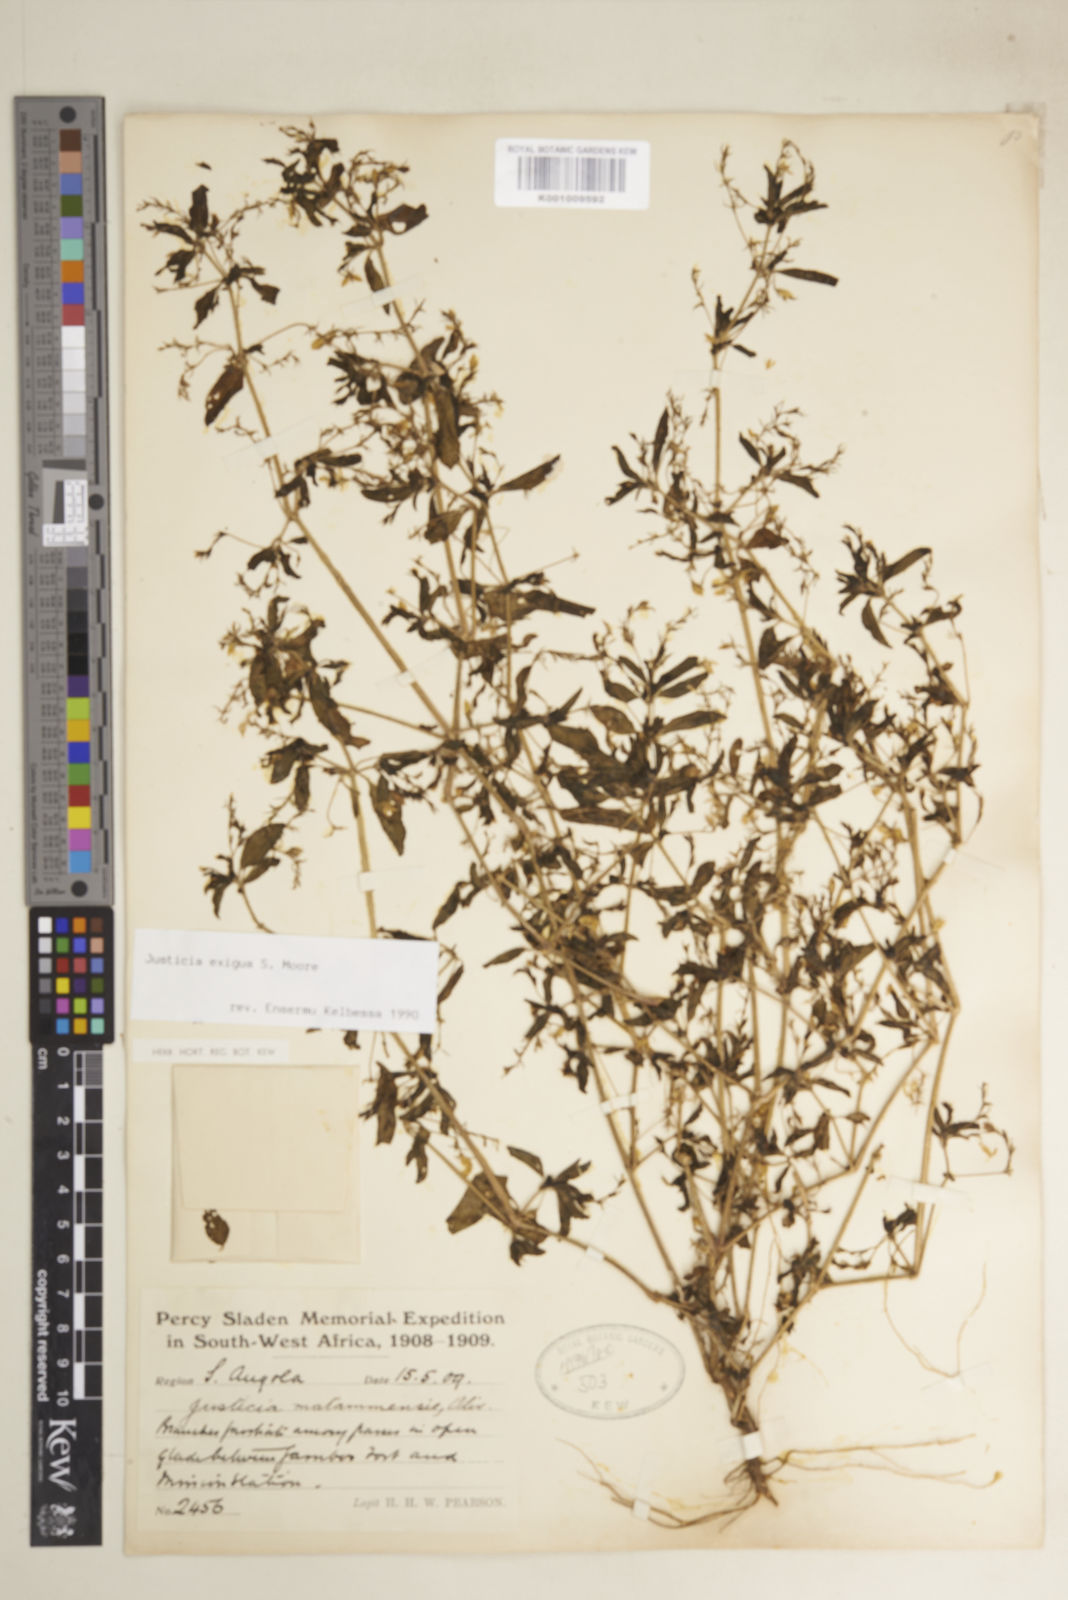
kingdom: Plantae
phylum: Tracheophyta
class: Magnoliopsida
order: Lamiales
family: Acanthaceae
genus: Justicia
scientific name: Justicia exigua
